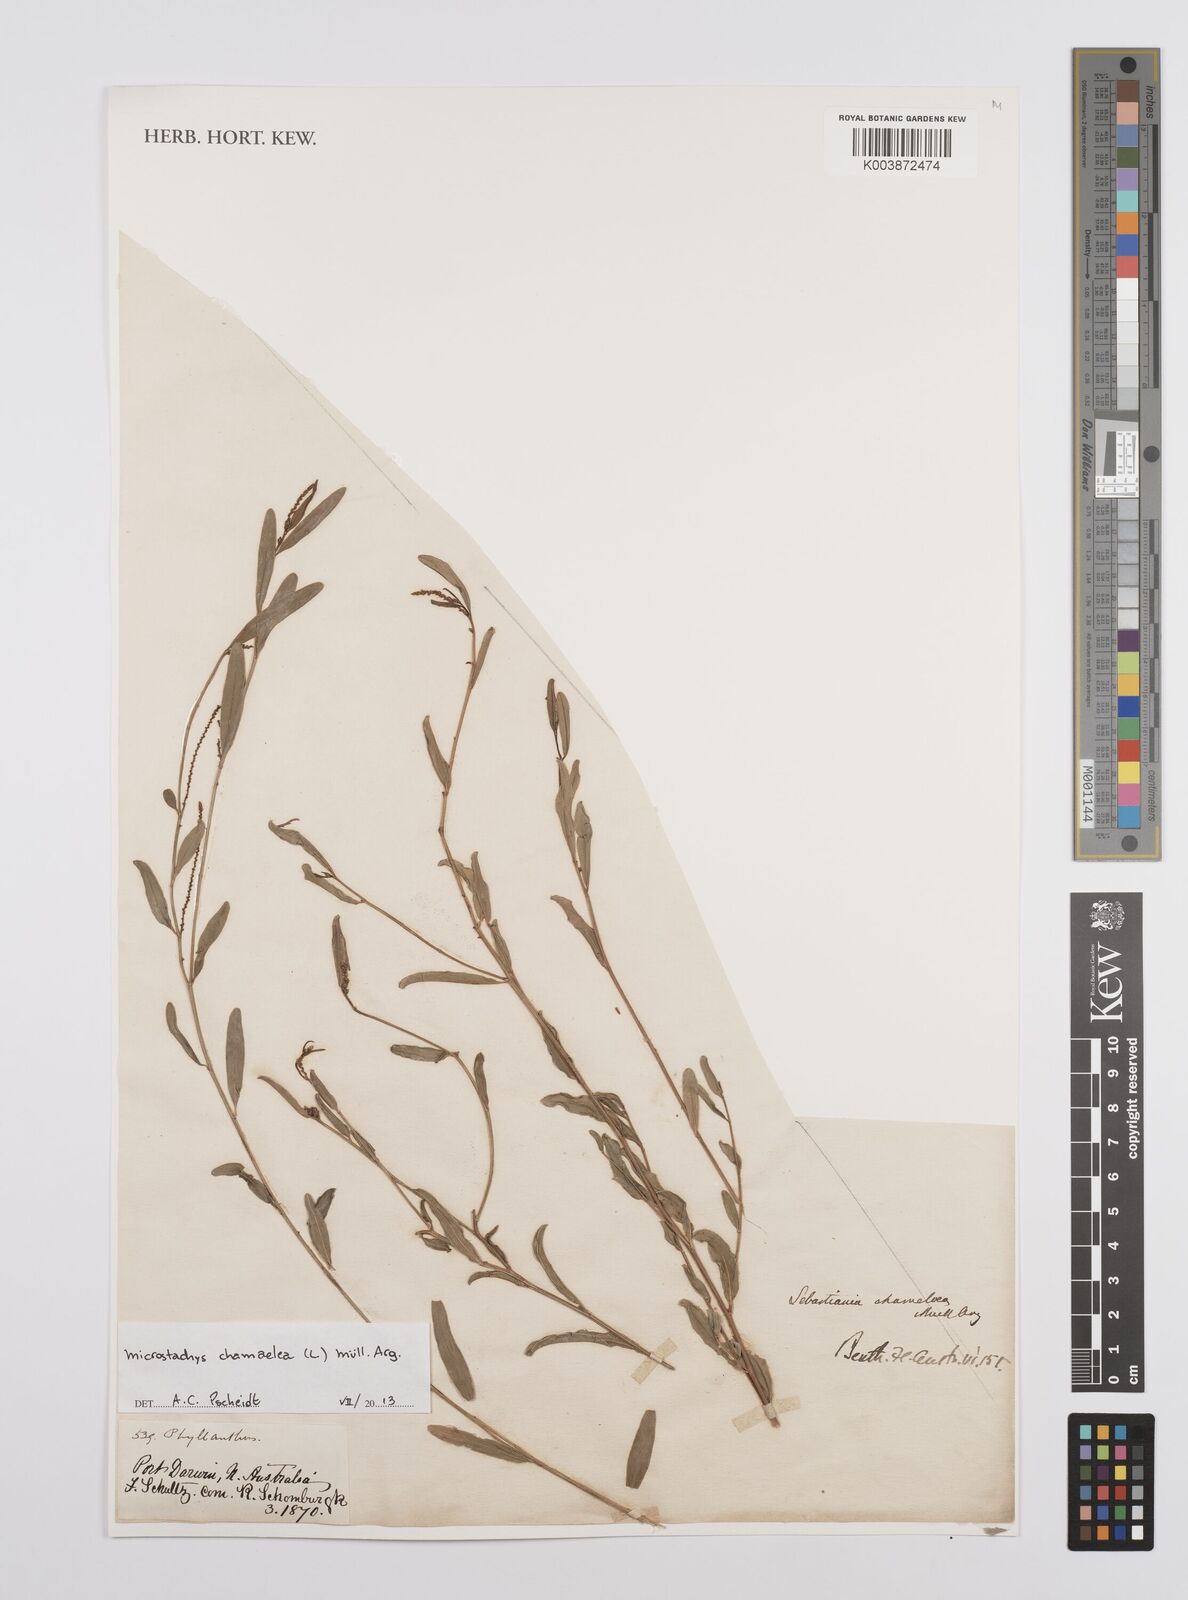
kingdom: Plantae
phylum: Tracheophyta
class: Magnoliopsida
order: Malpighiales
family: Euphorbiaceae
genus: Microstachys
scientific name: Microstachys chamaelea
